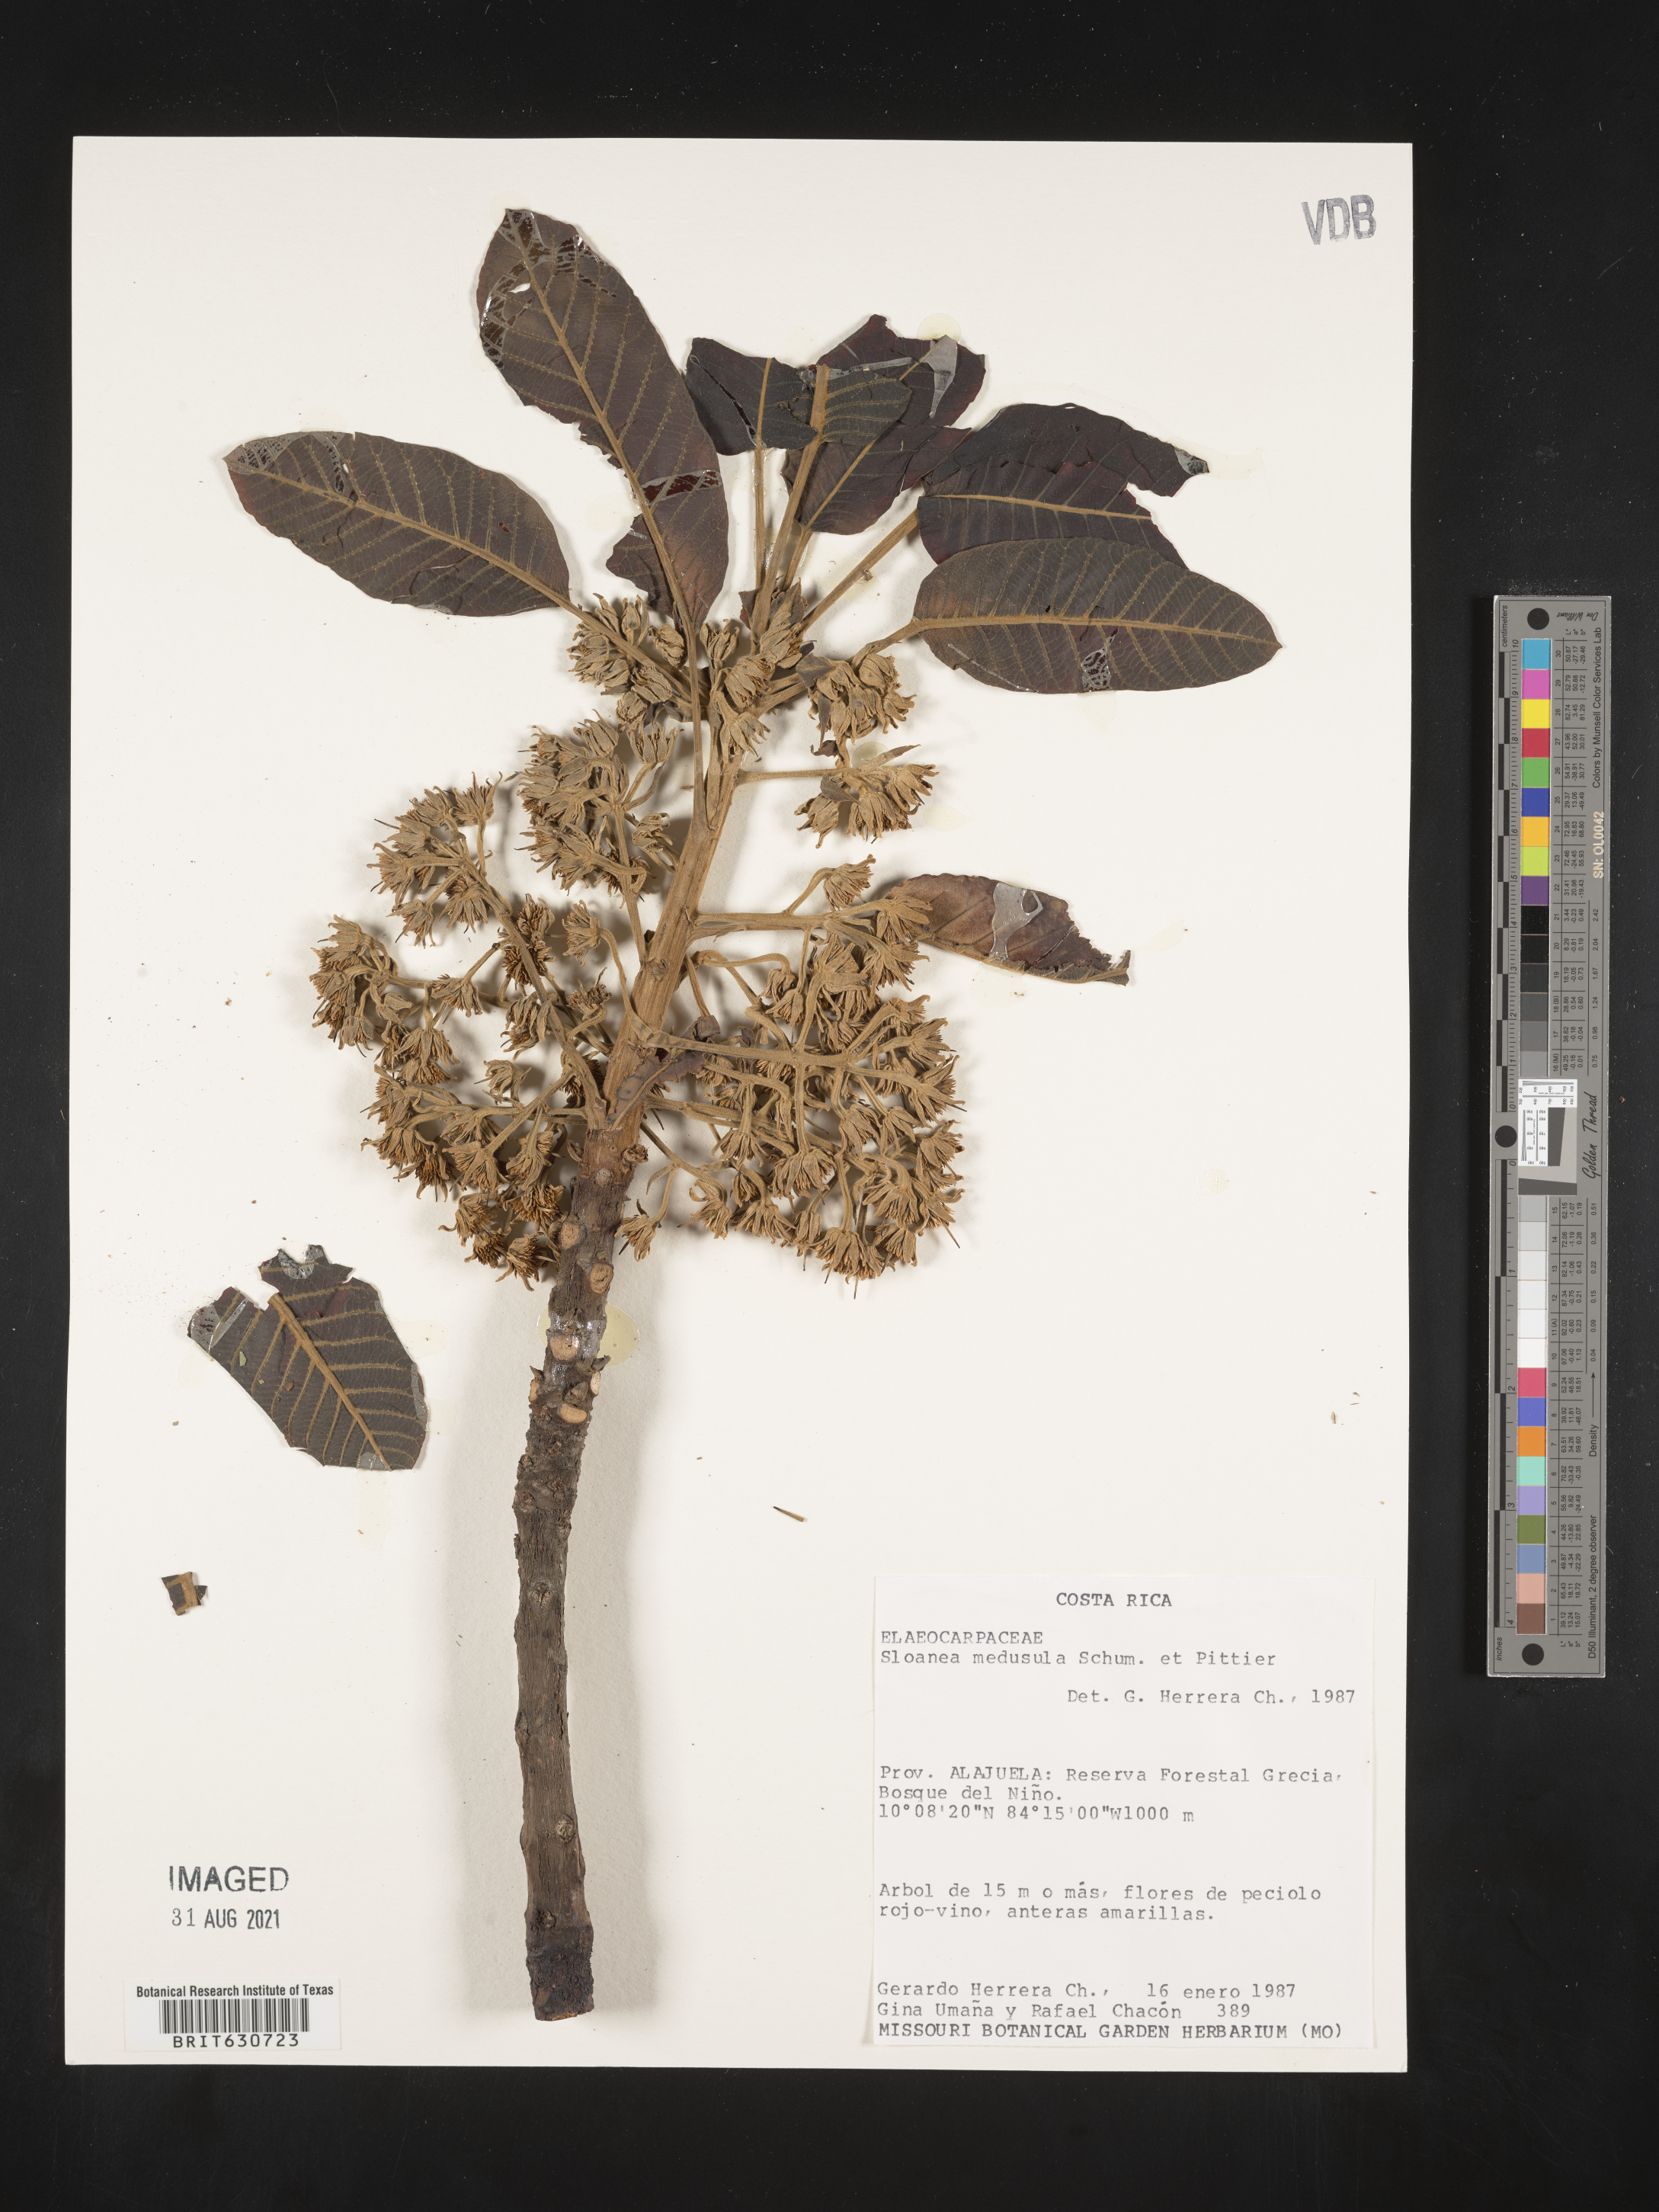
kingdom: Plantae
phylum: Tracheophyta
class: Magnoliopsida
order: Oxalidales
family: Elaeocarpaceae
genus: Sloanea
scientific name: Sloanea
